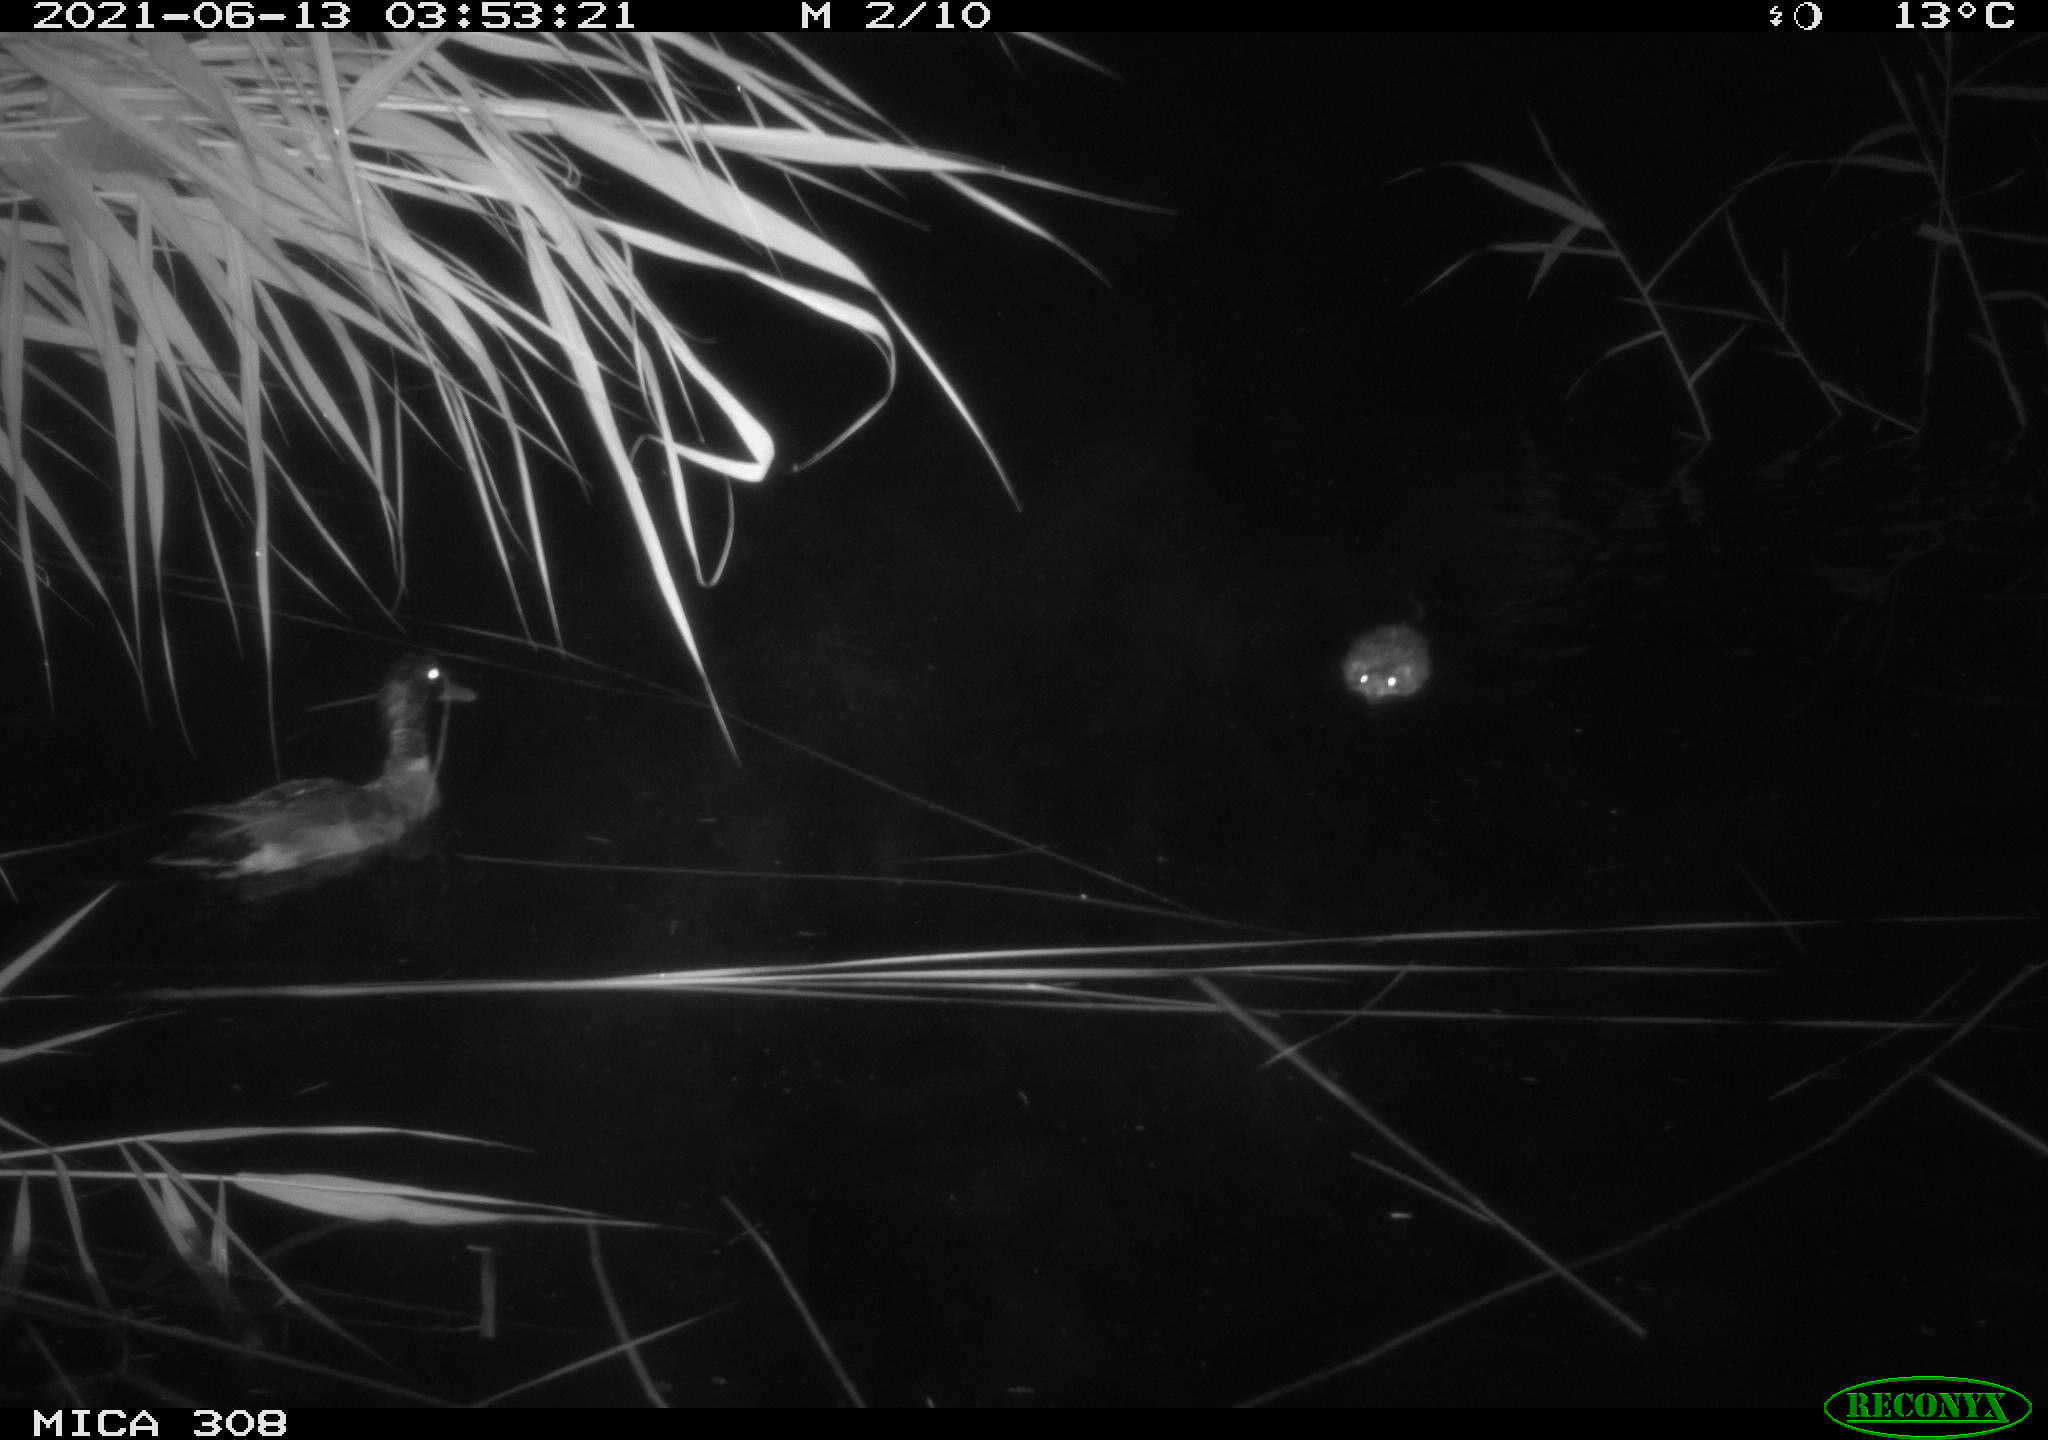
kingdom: Animalia
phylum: Chordata
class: Mammalia
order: Rodentia
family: Cricetidae
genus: Ondatra
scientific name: Ondatra zibethicus
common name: Muskrat
